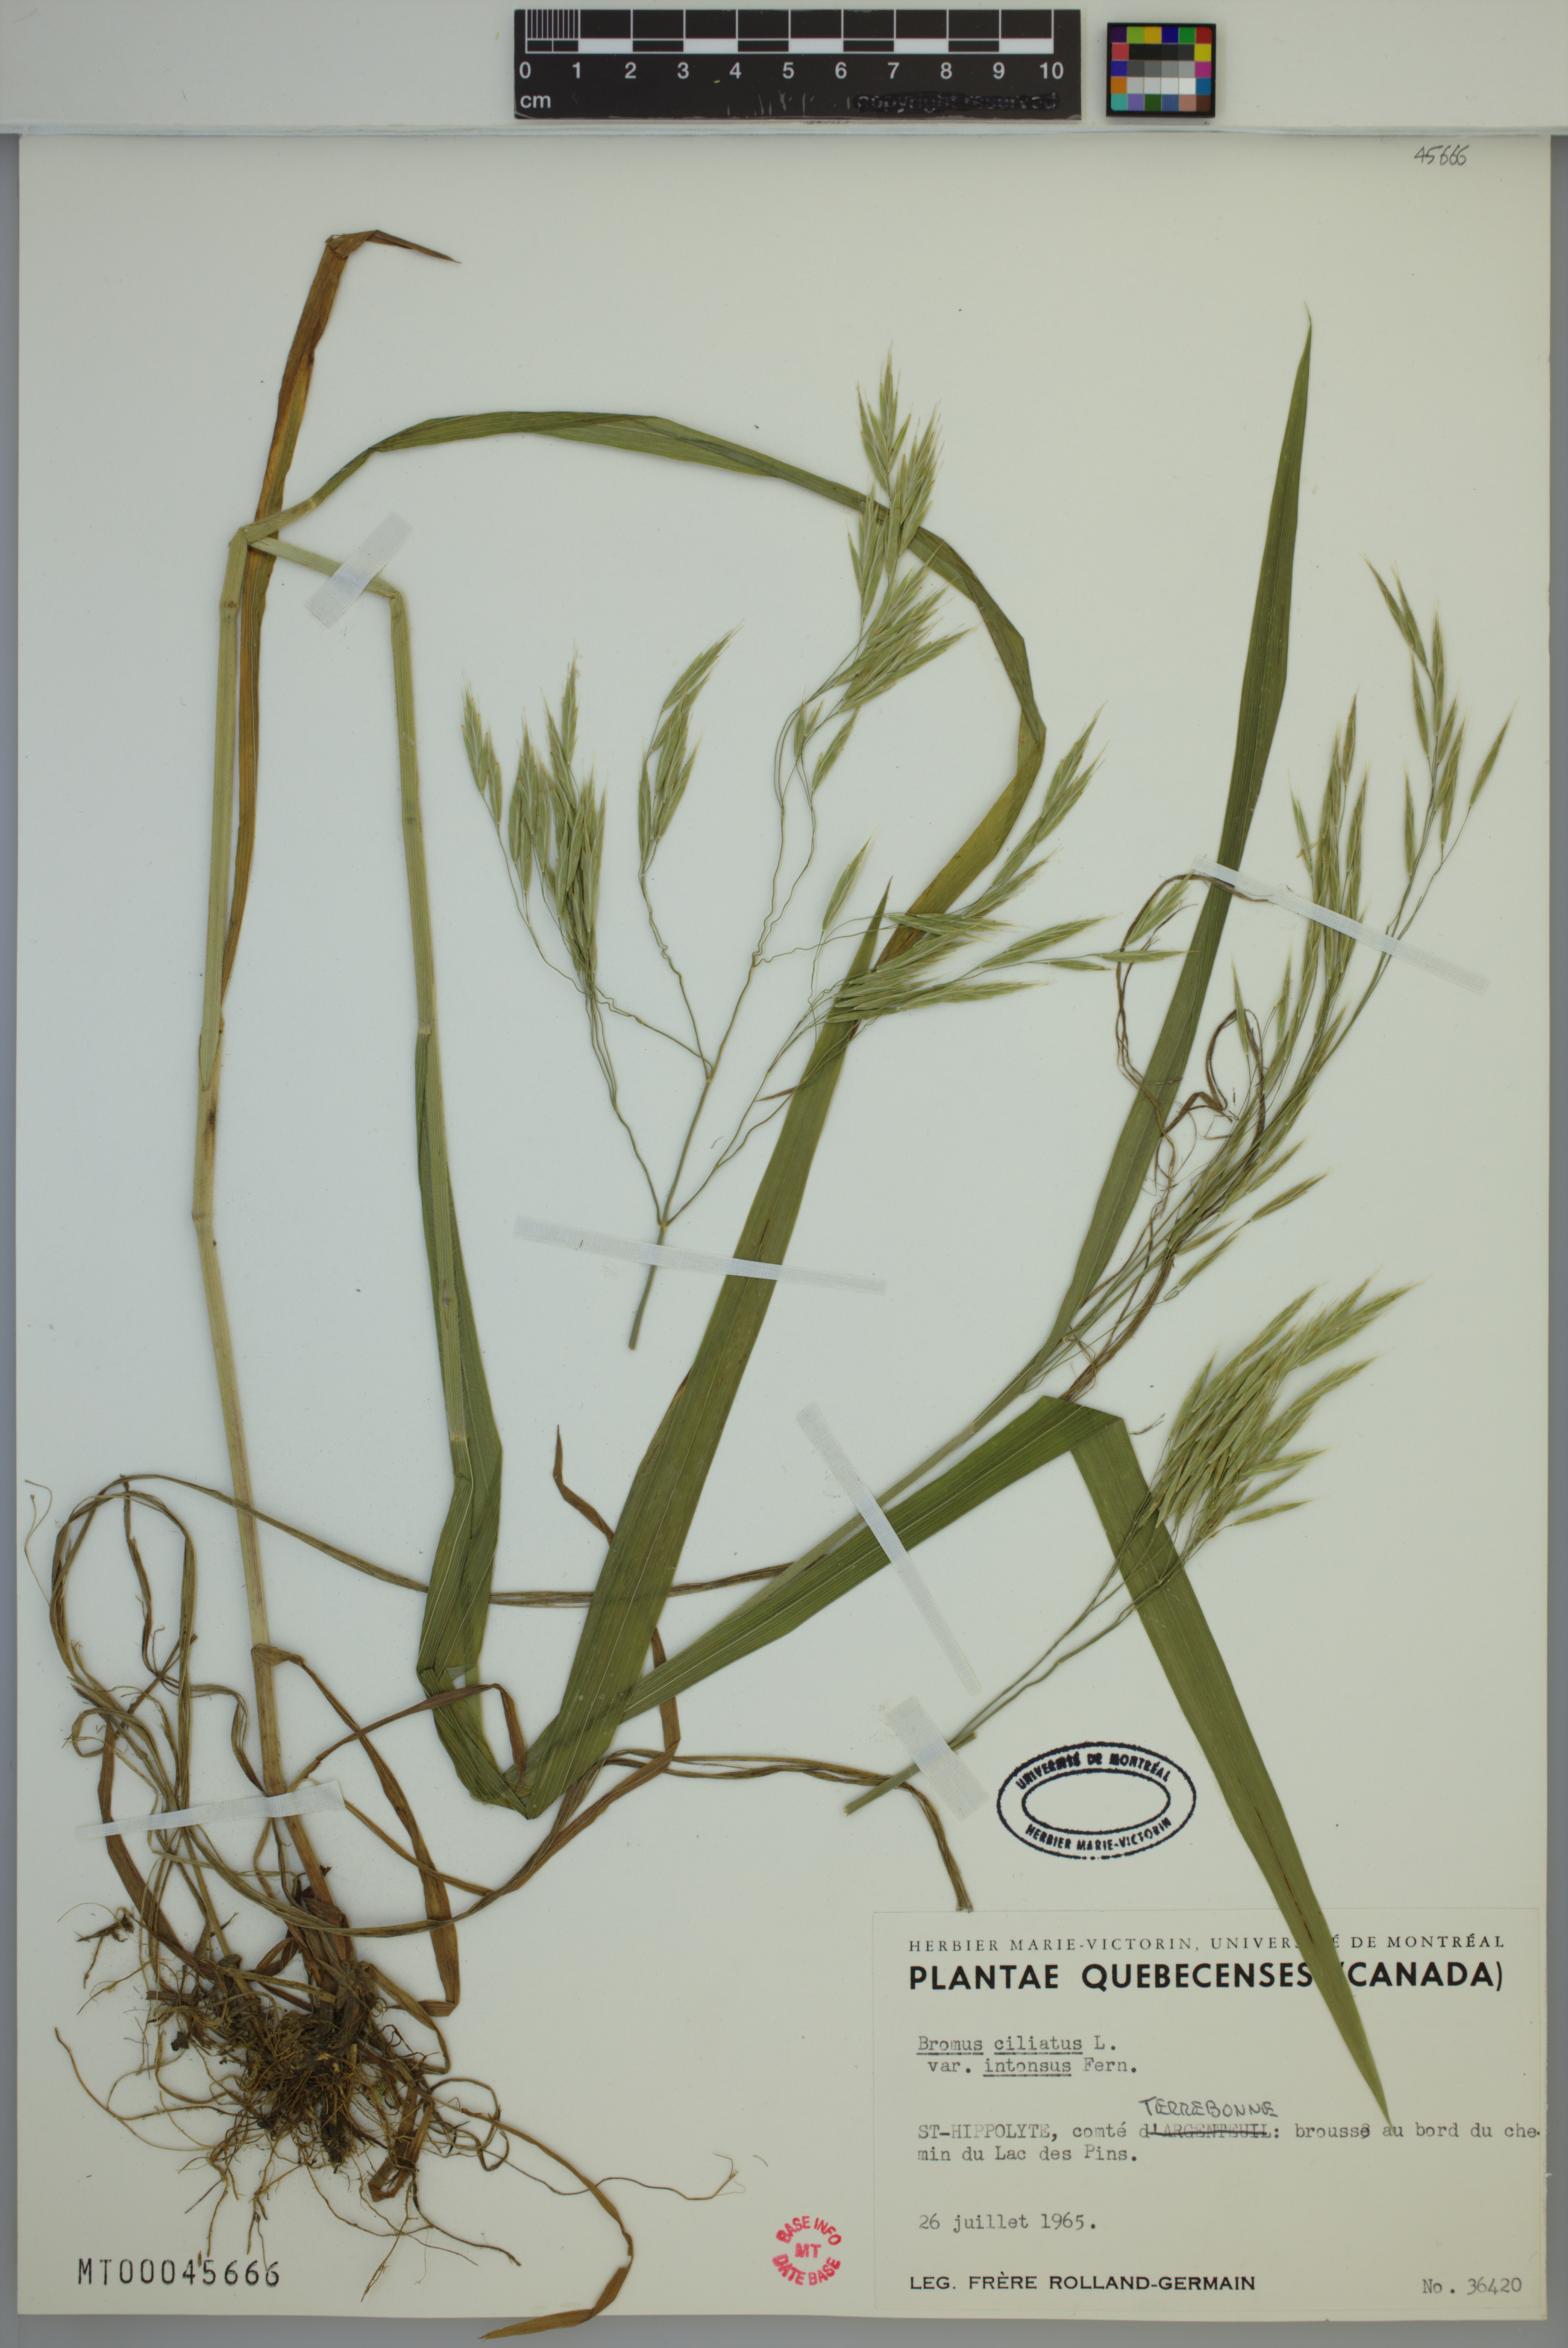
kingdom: Plantae
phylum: Tracheophyta
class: Liliopsida
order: Poales
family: Poaceae
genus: Bromus
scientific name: Bromus ciliatus
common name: Fringe brome
